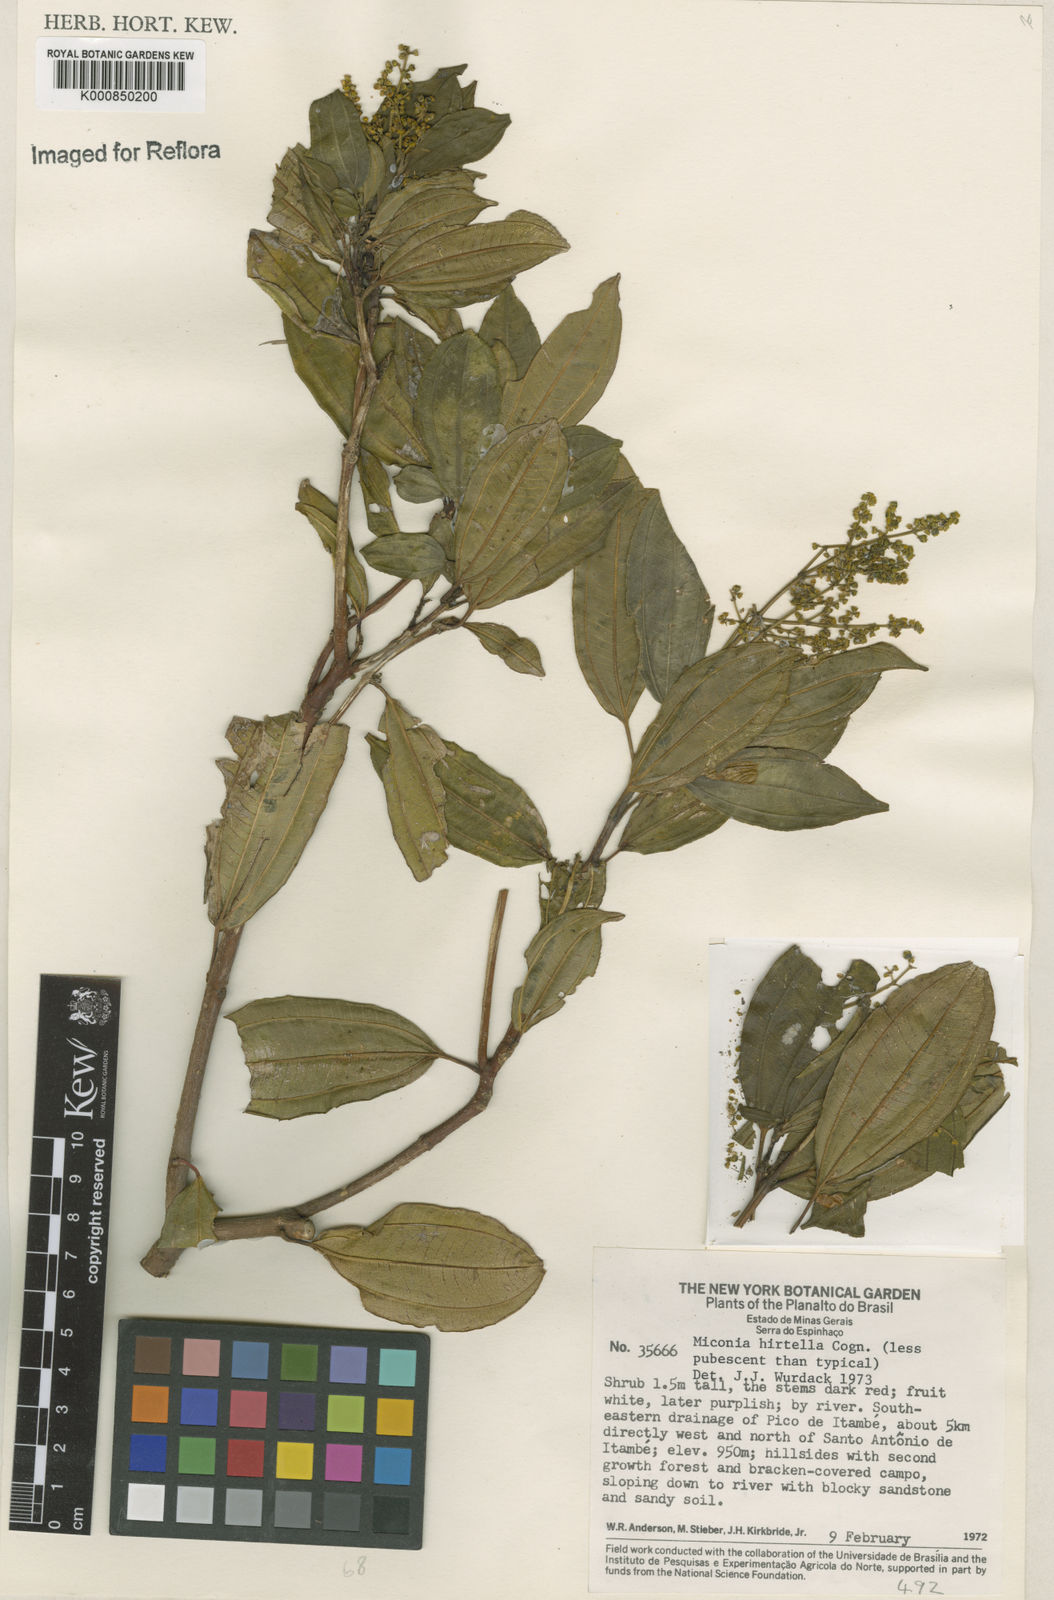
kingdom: Plantae
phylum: Tracheophyta
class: Magnoliopsida
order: Myrtales
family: Melastomataceae
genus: Miconia
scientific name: Miconia hirta
